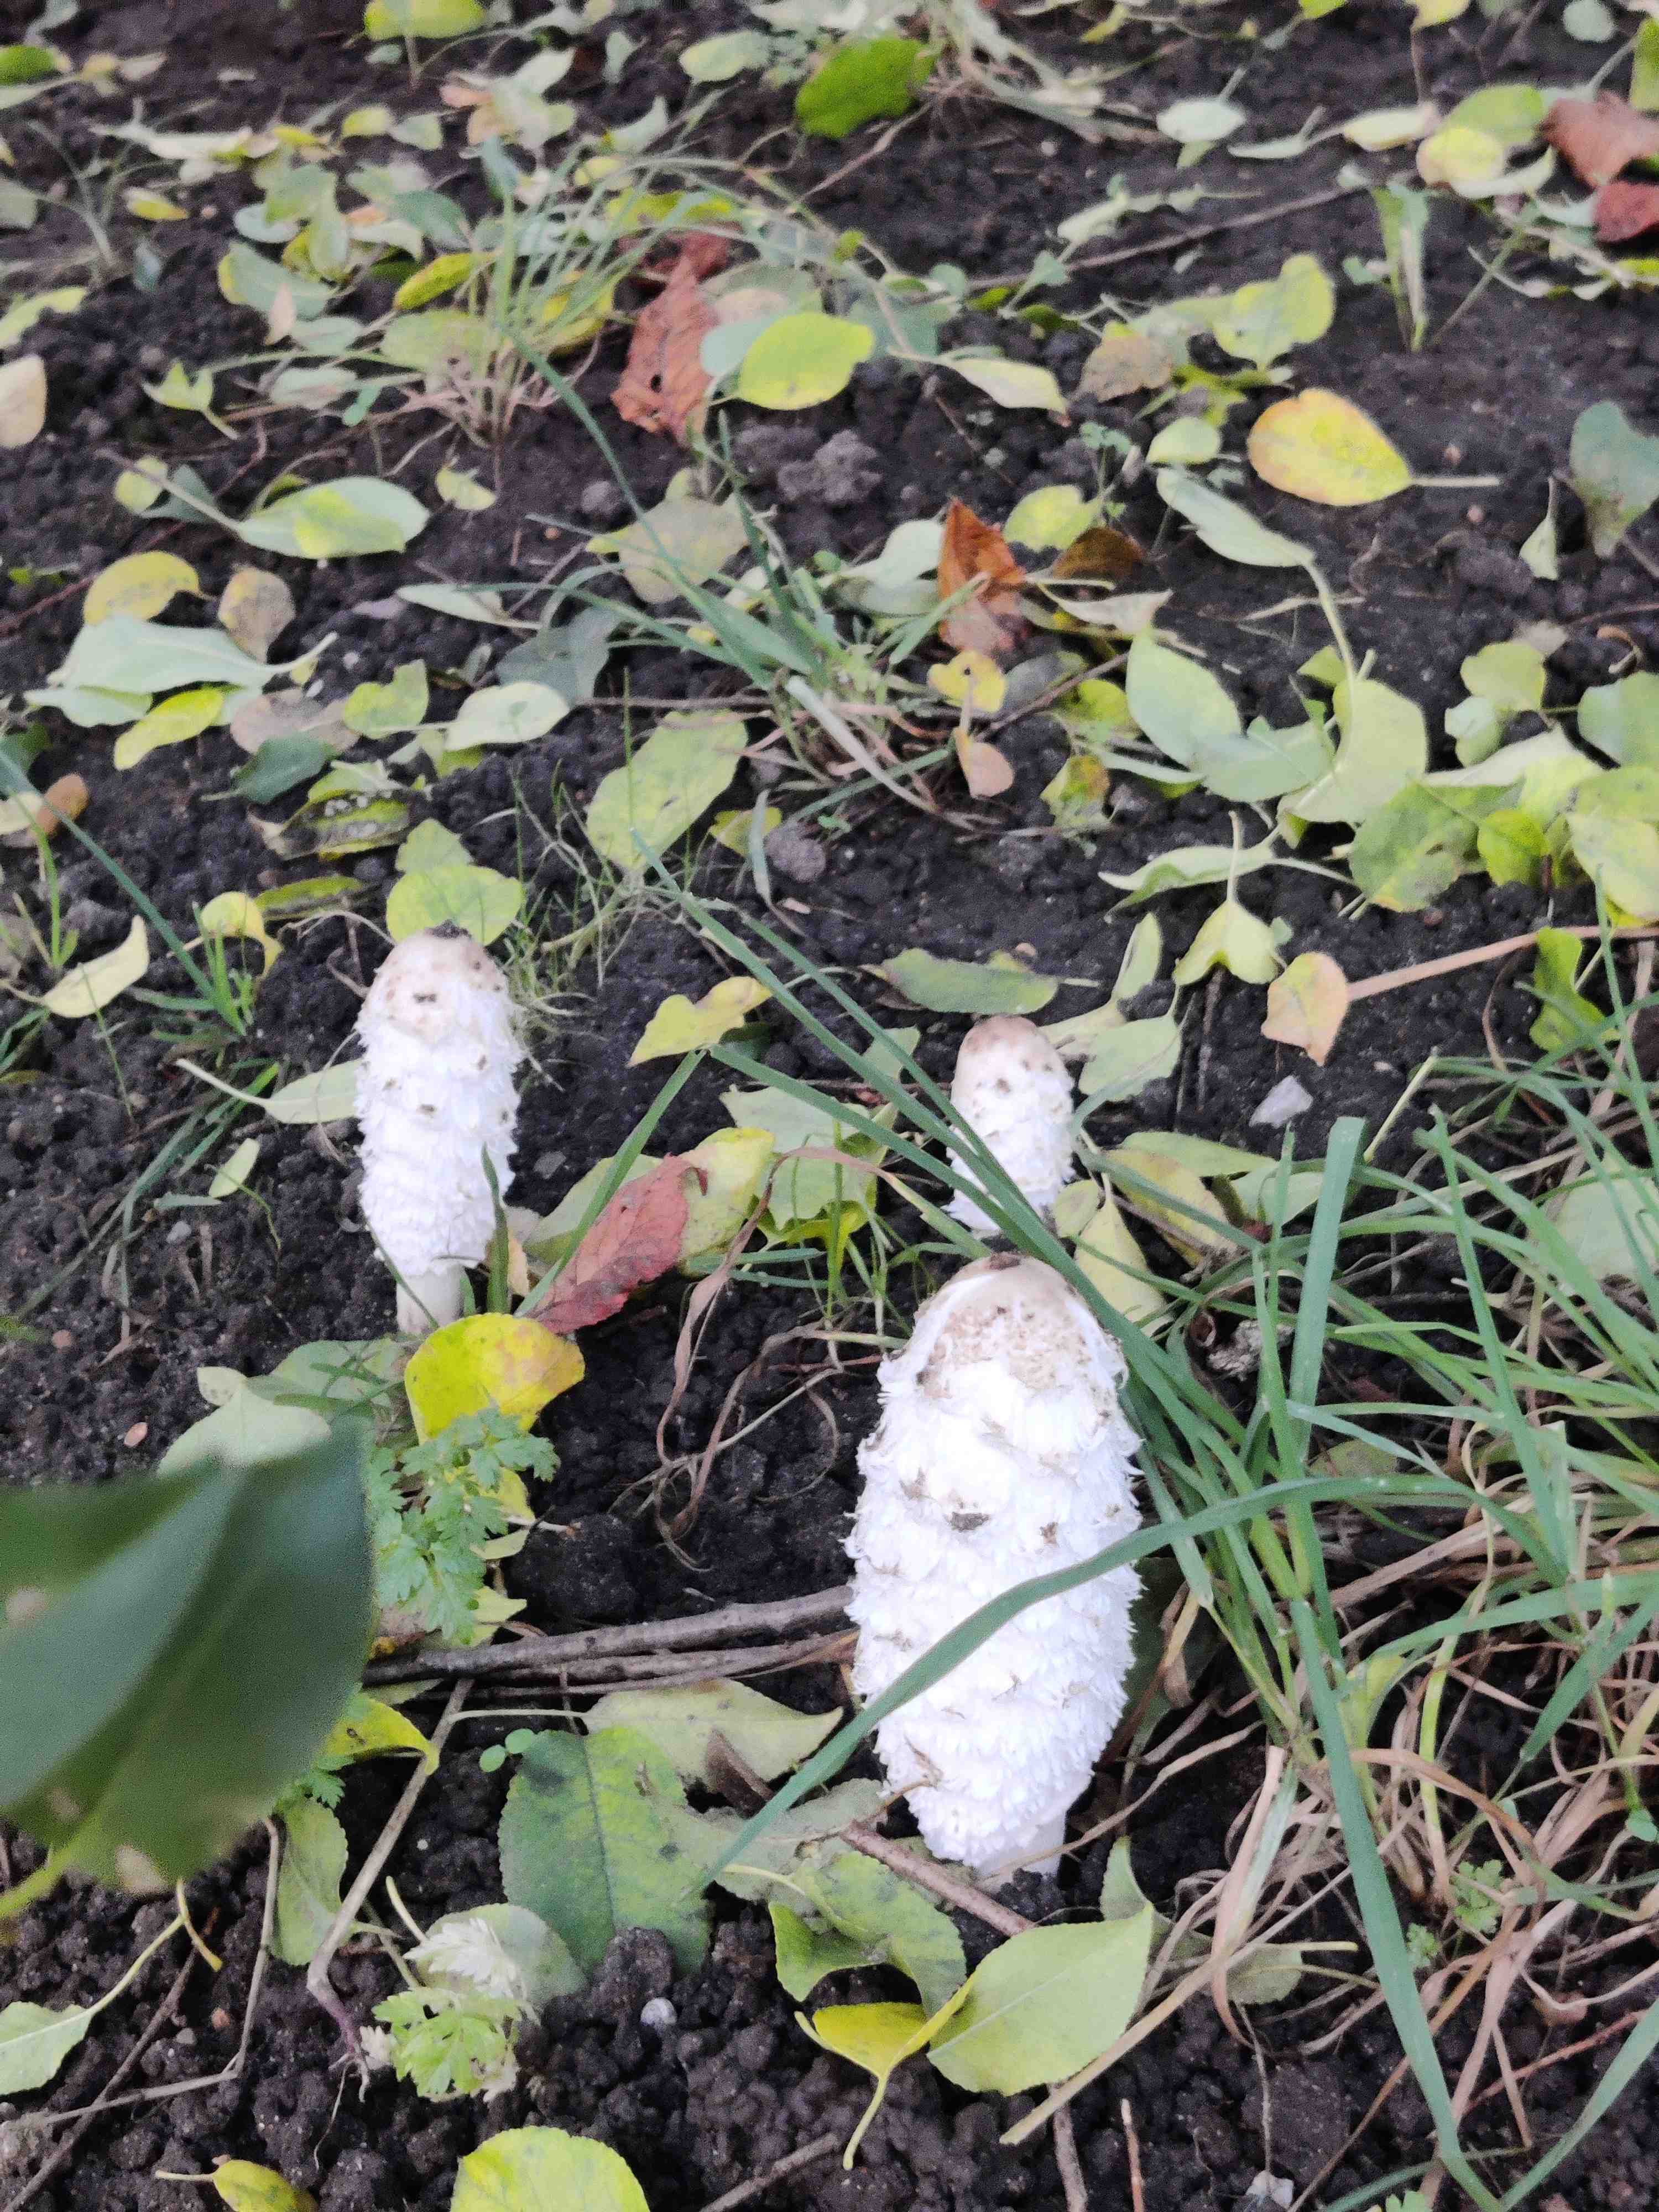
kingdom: Fungi
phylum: Basidiomycota
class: Agaricomycetes
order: Agaricales
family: Agaricaceae
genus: Coprinus
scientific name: Coprinus comatus
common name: stor parykhat
